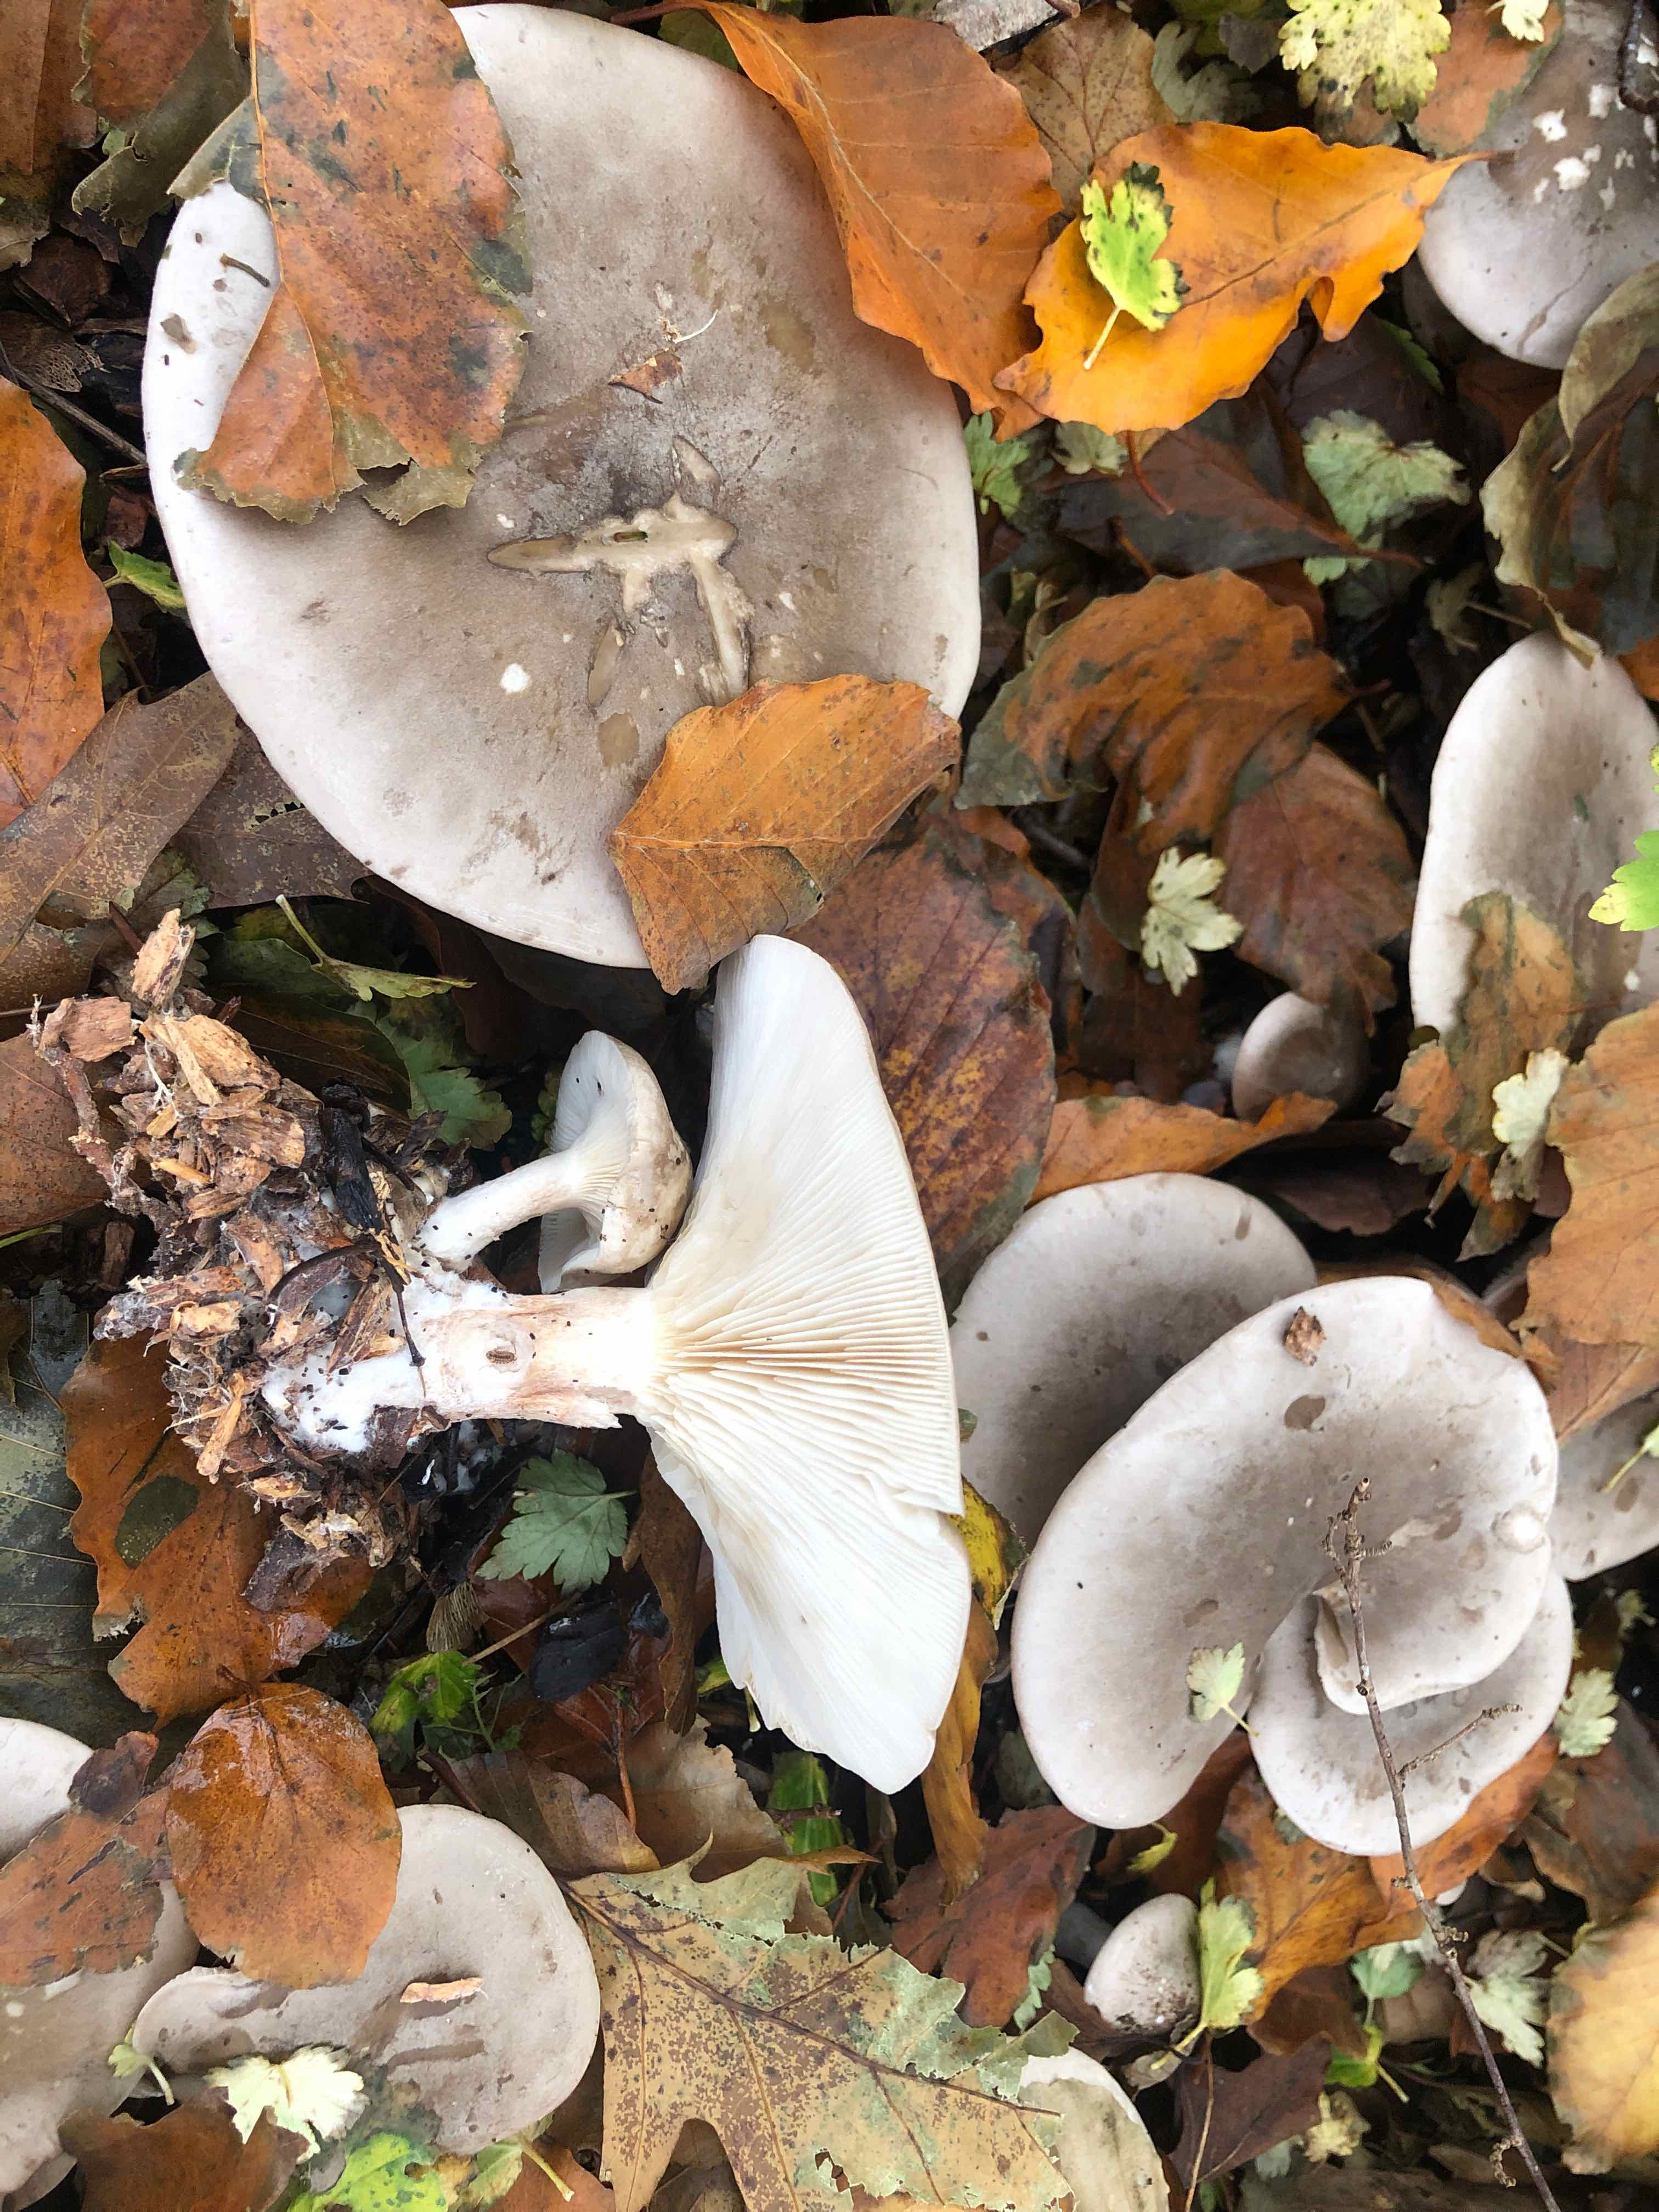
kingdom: Fungi
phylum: Basidiomycota
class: Agaricomycetes
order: Agaricales
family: Tricholomataceae
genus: Clitocybe
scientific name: Clitocybe nebularis
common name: tåge-tragthat
